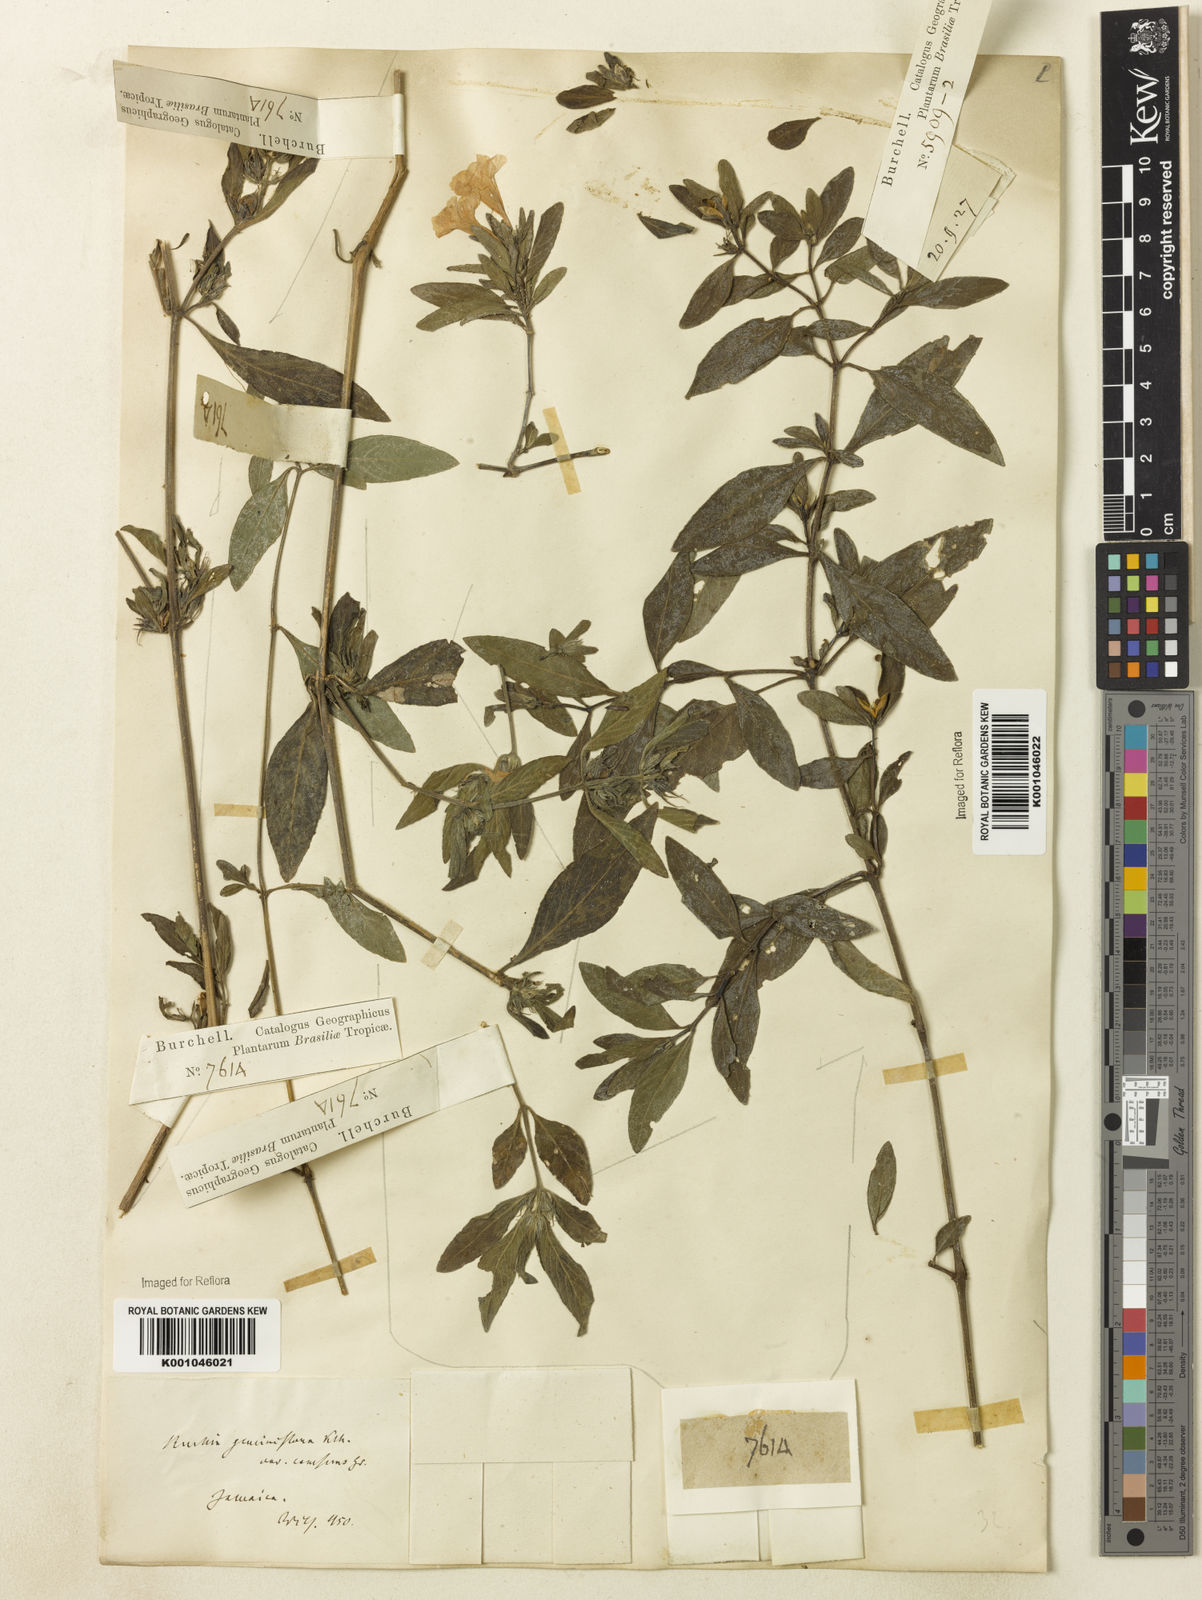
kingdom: Plantae
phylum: Tracheophyta
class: Magnoliopsida
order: Lamiales
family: Acanthaceae
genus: Ruellia
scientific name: Ruellia geminiflora
